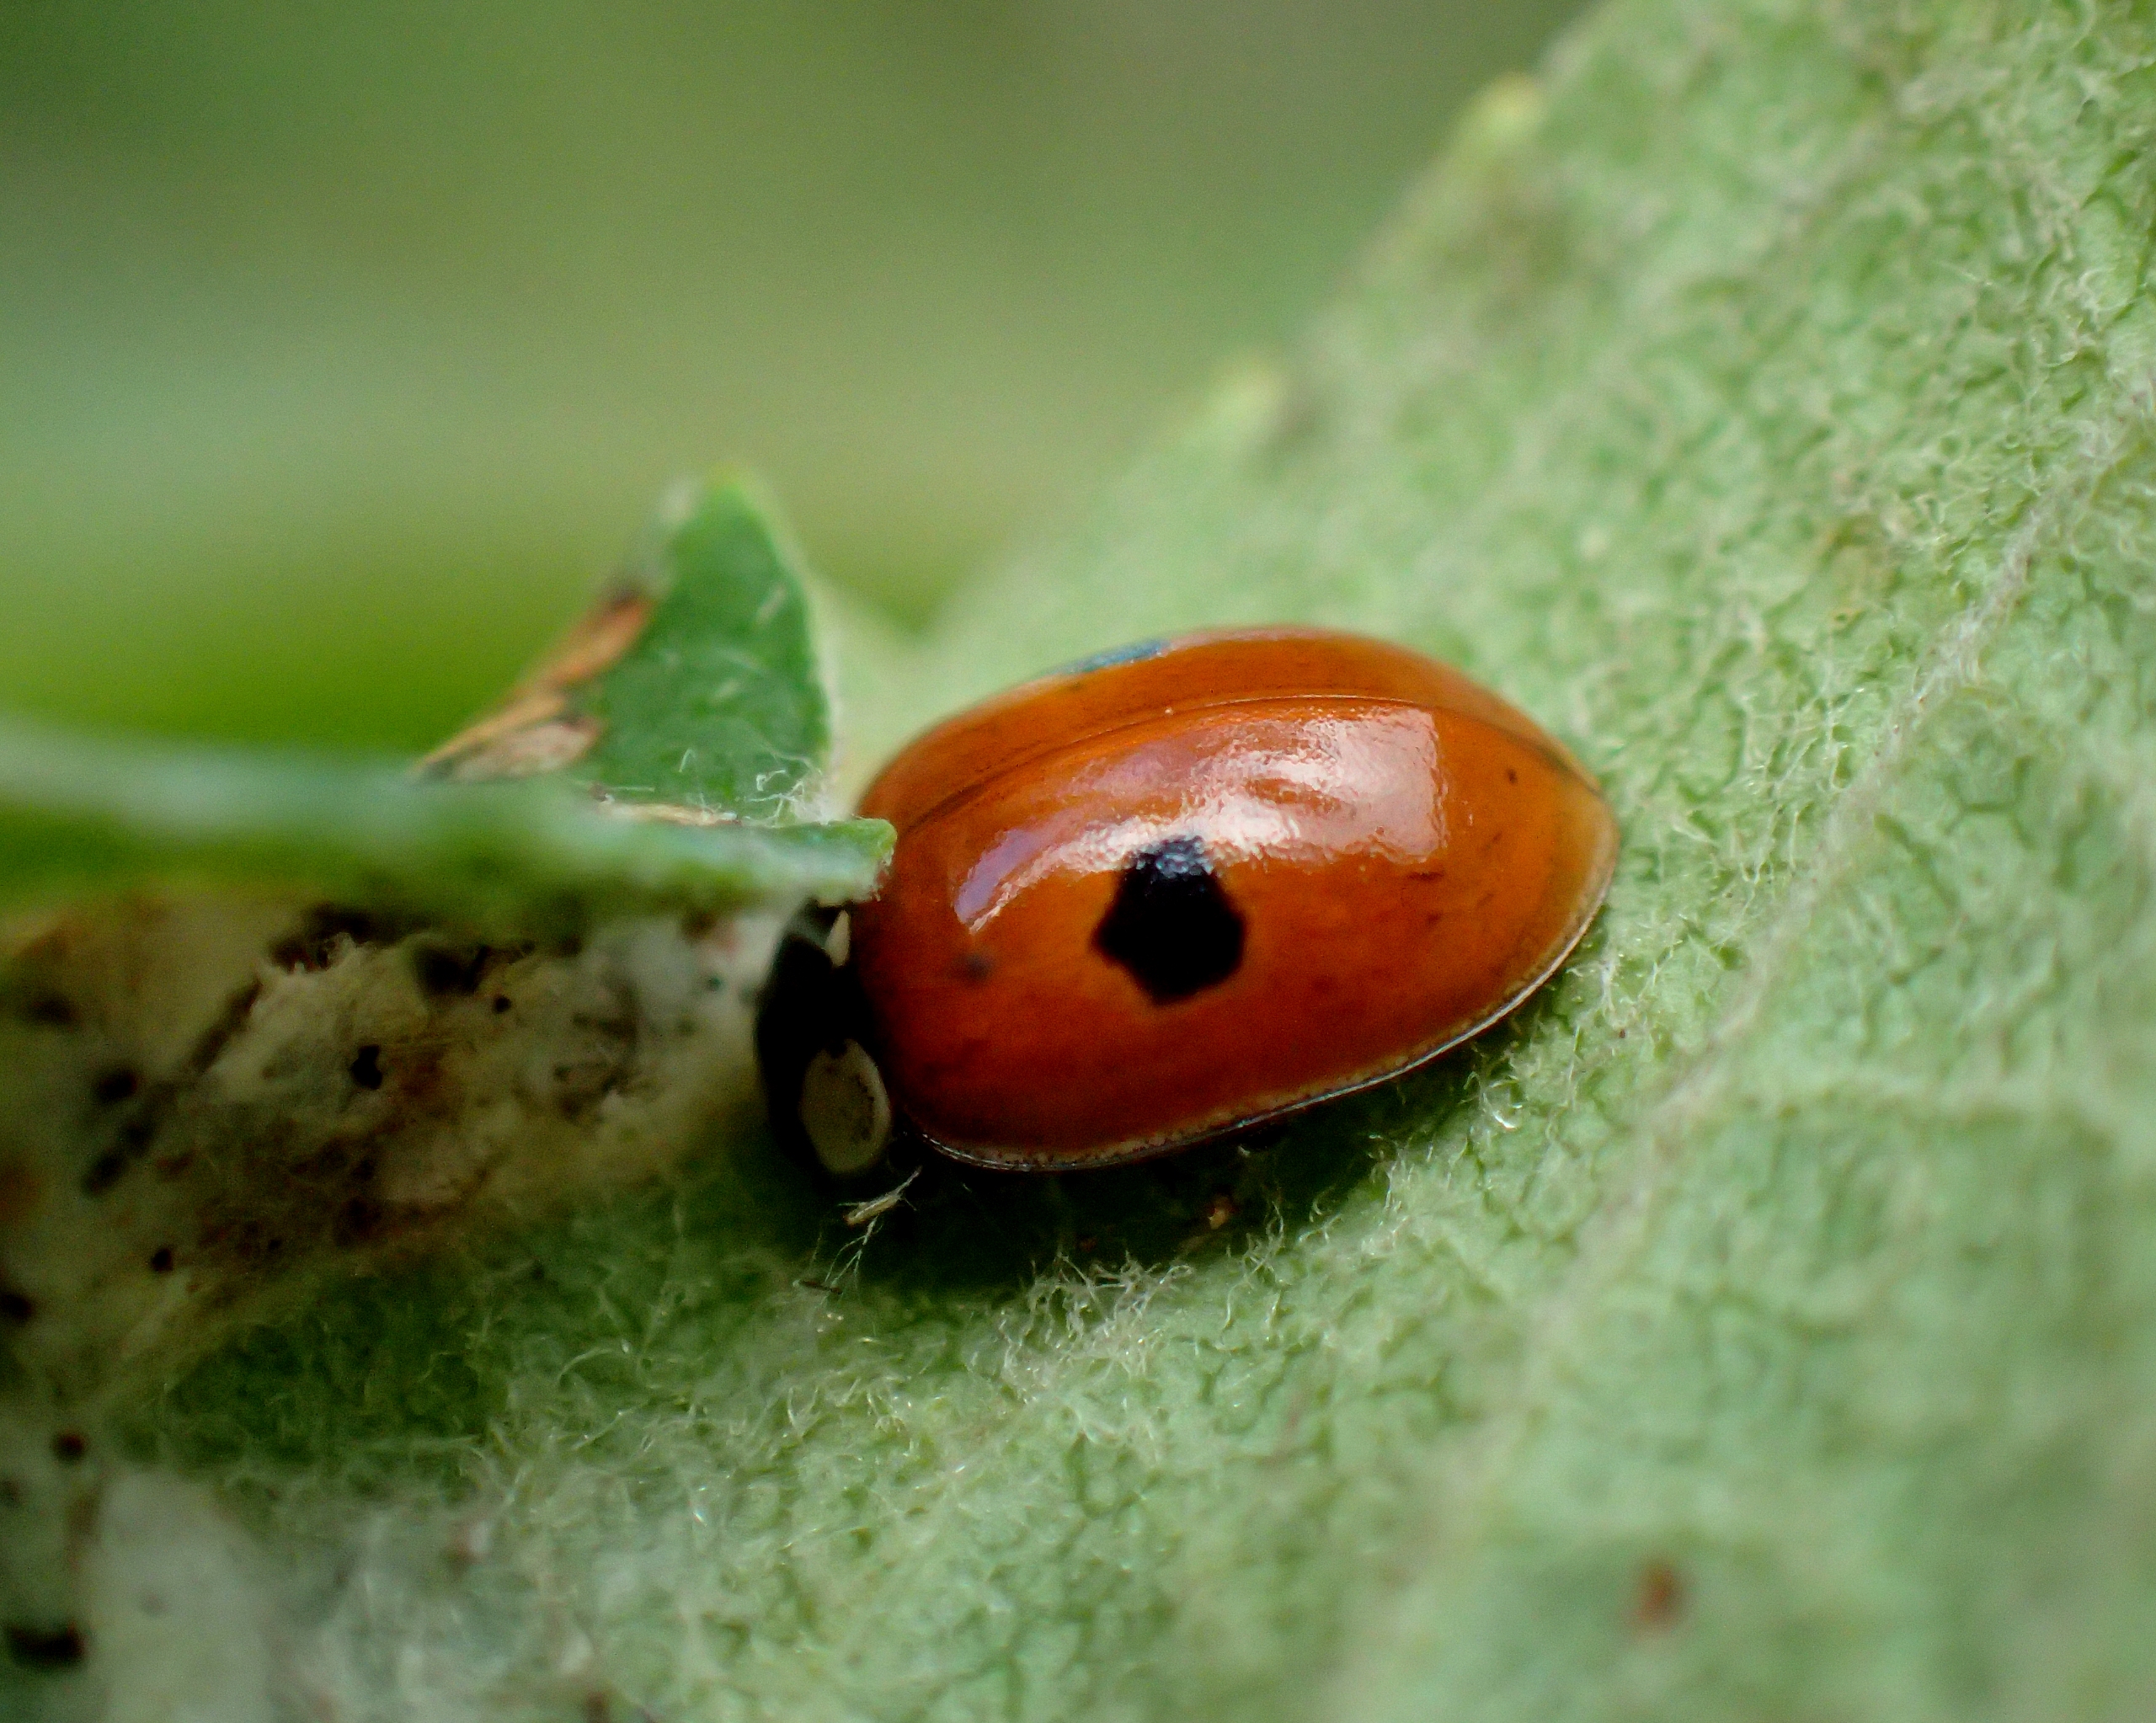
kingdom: Animalia
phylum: Arthropoda
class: Insecta
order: Coleoptera
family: Coccinellidae
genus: Adalia
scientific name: Adalia bipunctata
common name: Toplettet mariehøne
